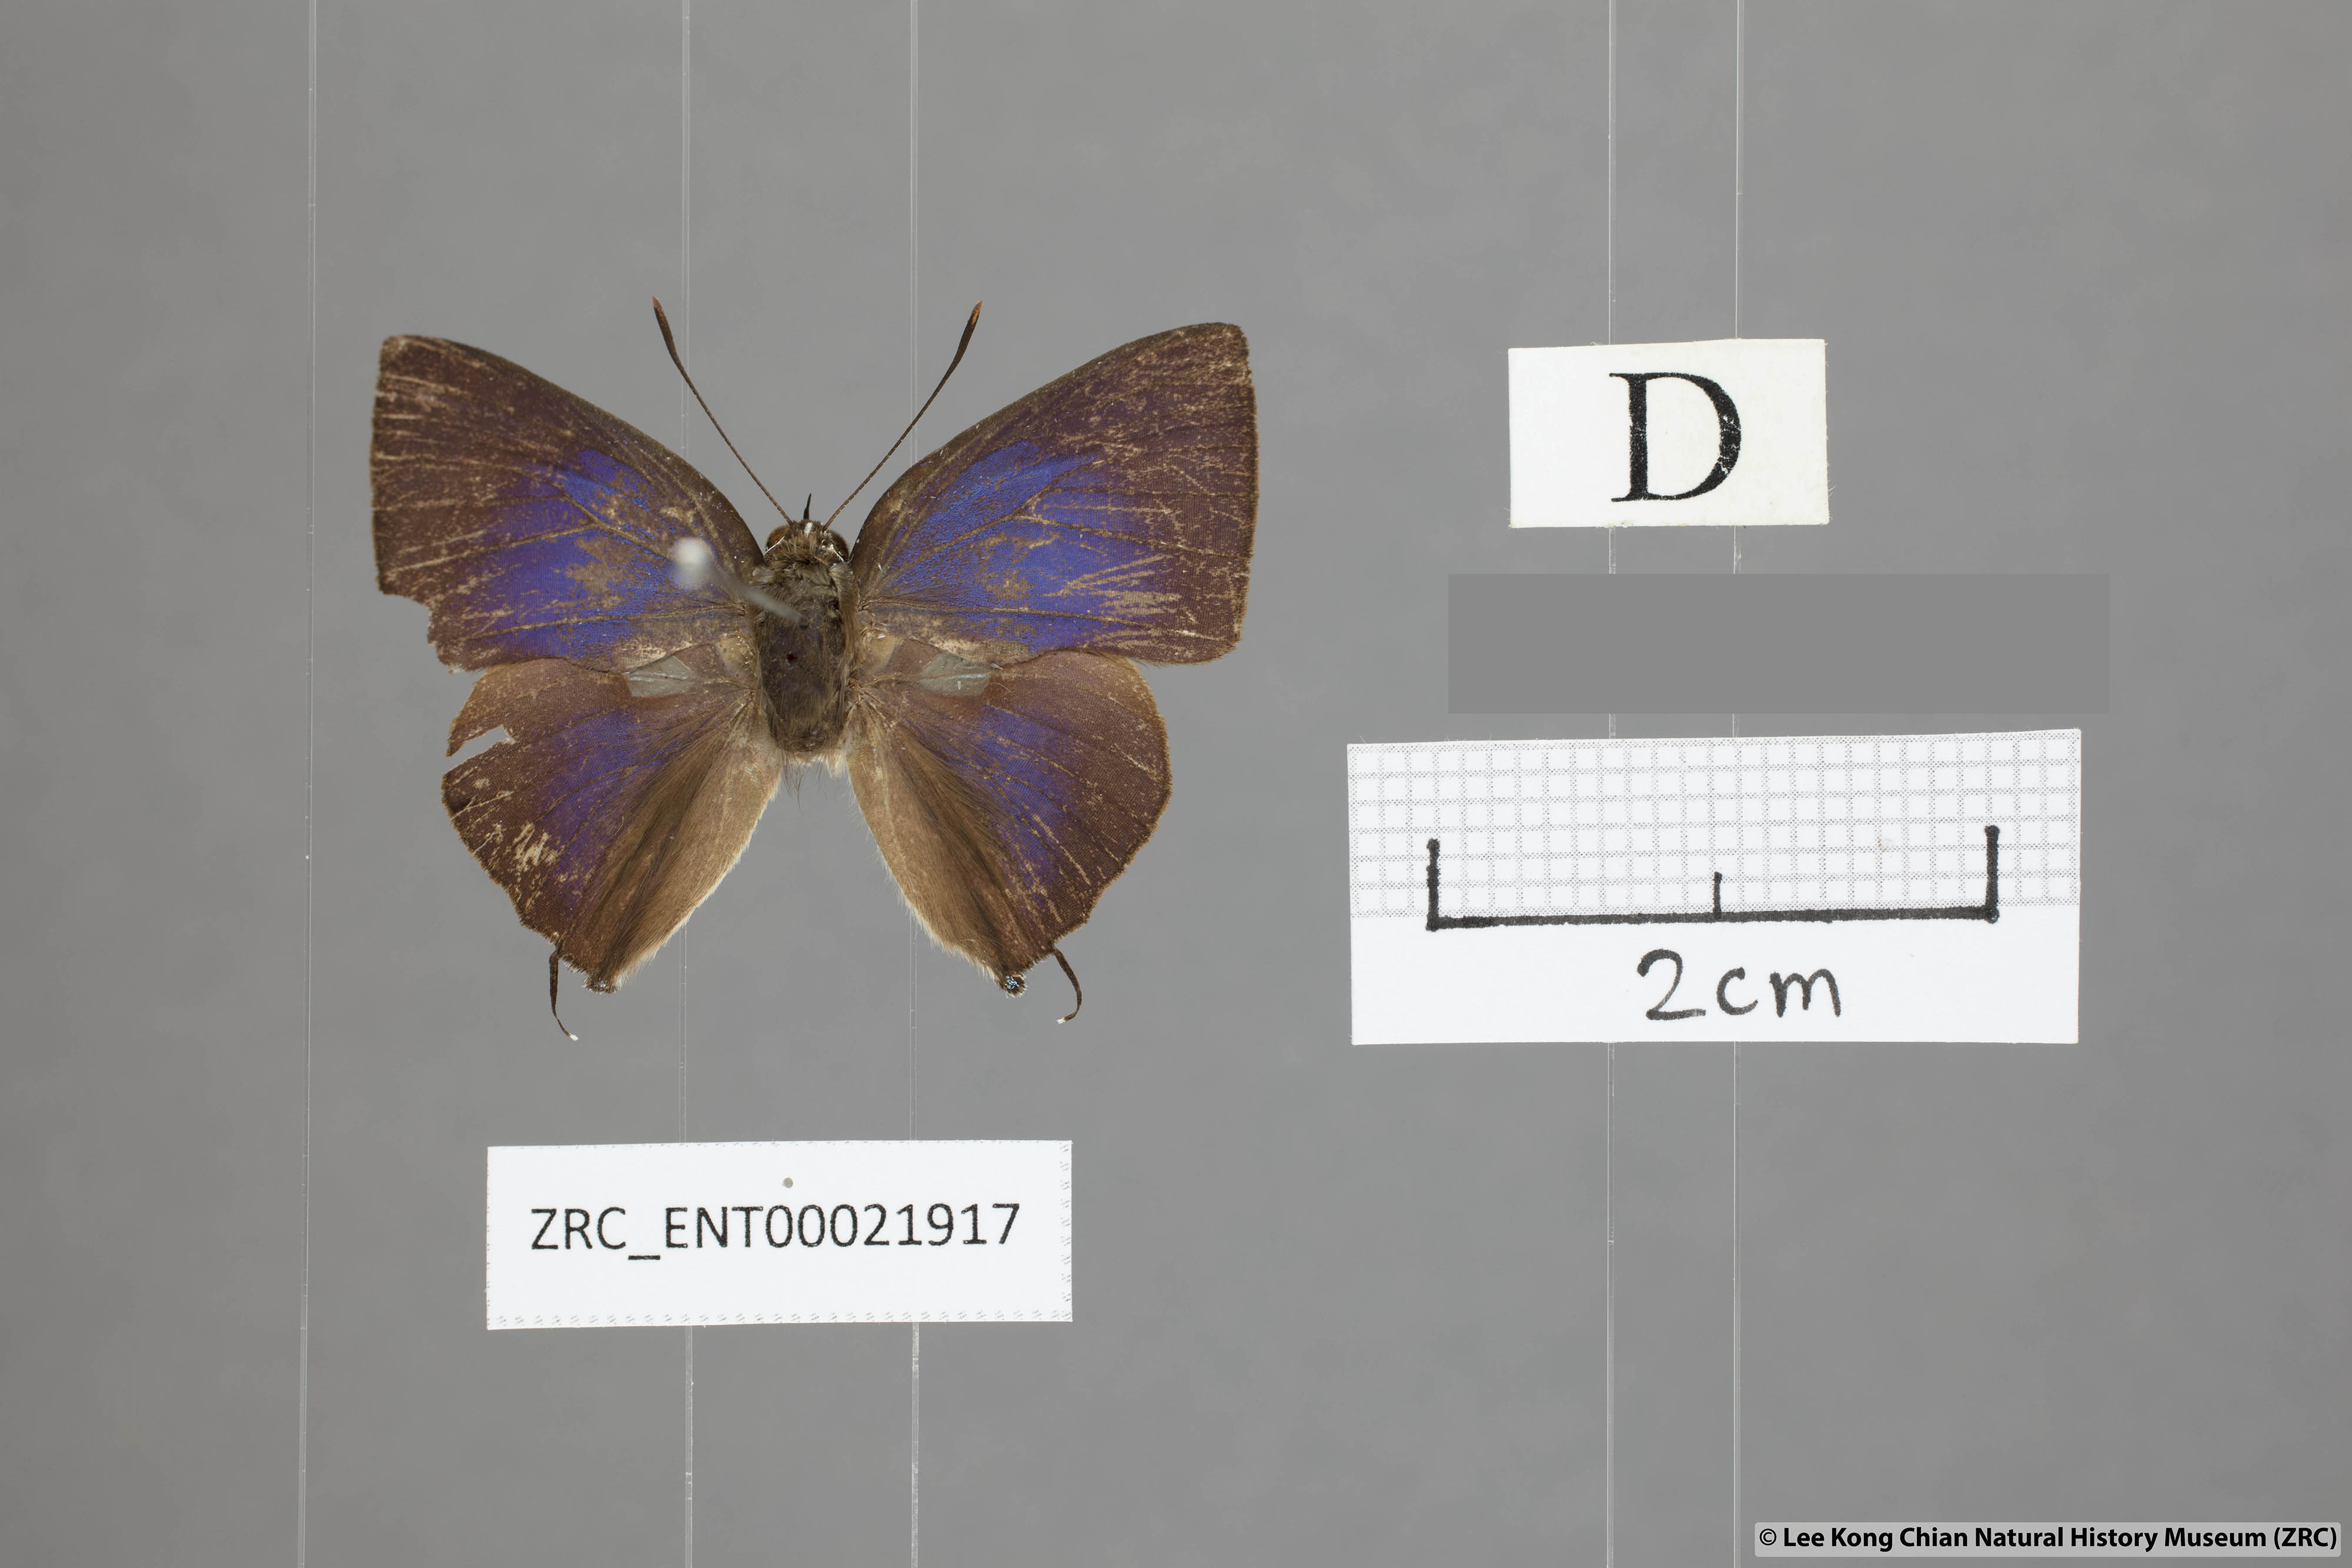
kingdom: Animalia
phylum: Arthropoda
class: Insecta
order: Lepidoptera
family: Lycaenidae
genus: Deudorix
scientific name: Deudorix
